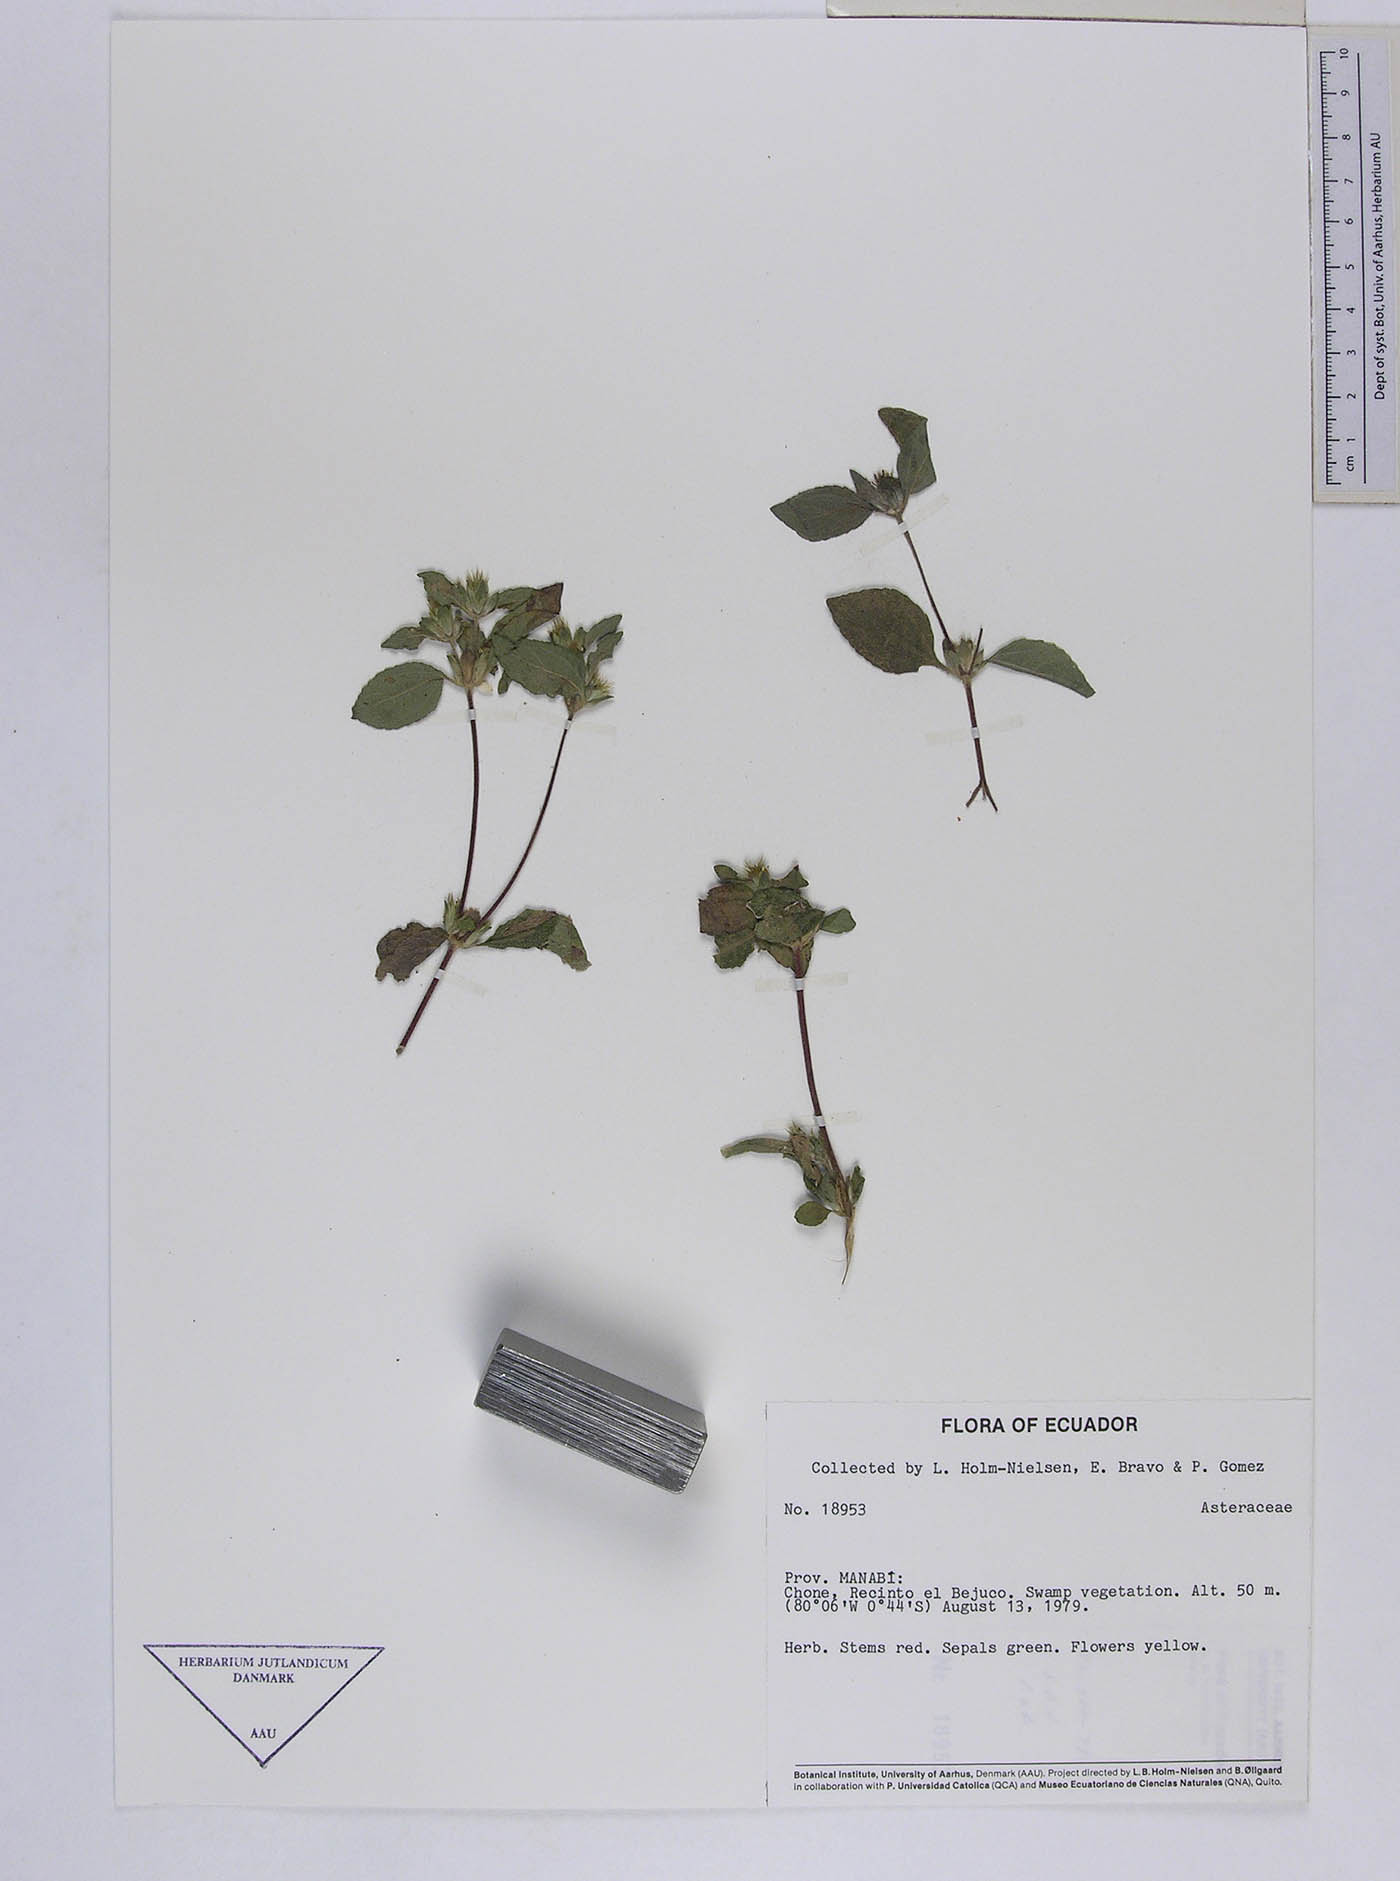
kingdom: Plantae
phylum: Tracheophyta
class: Magnoliopsida
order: Asterales
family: Asteraceae
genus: Synedrella
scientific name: Synedrella nodiflora
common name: Nodeweed
